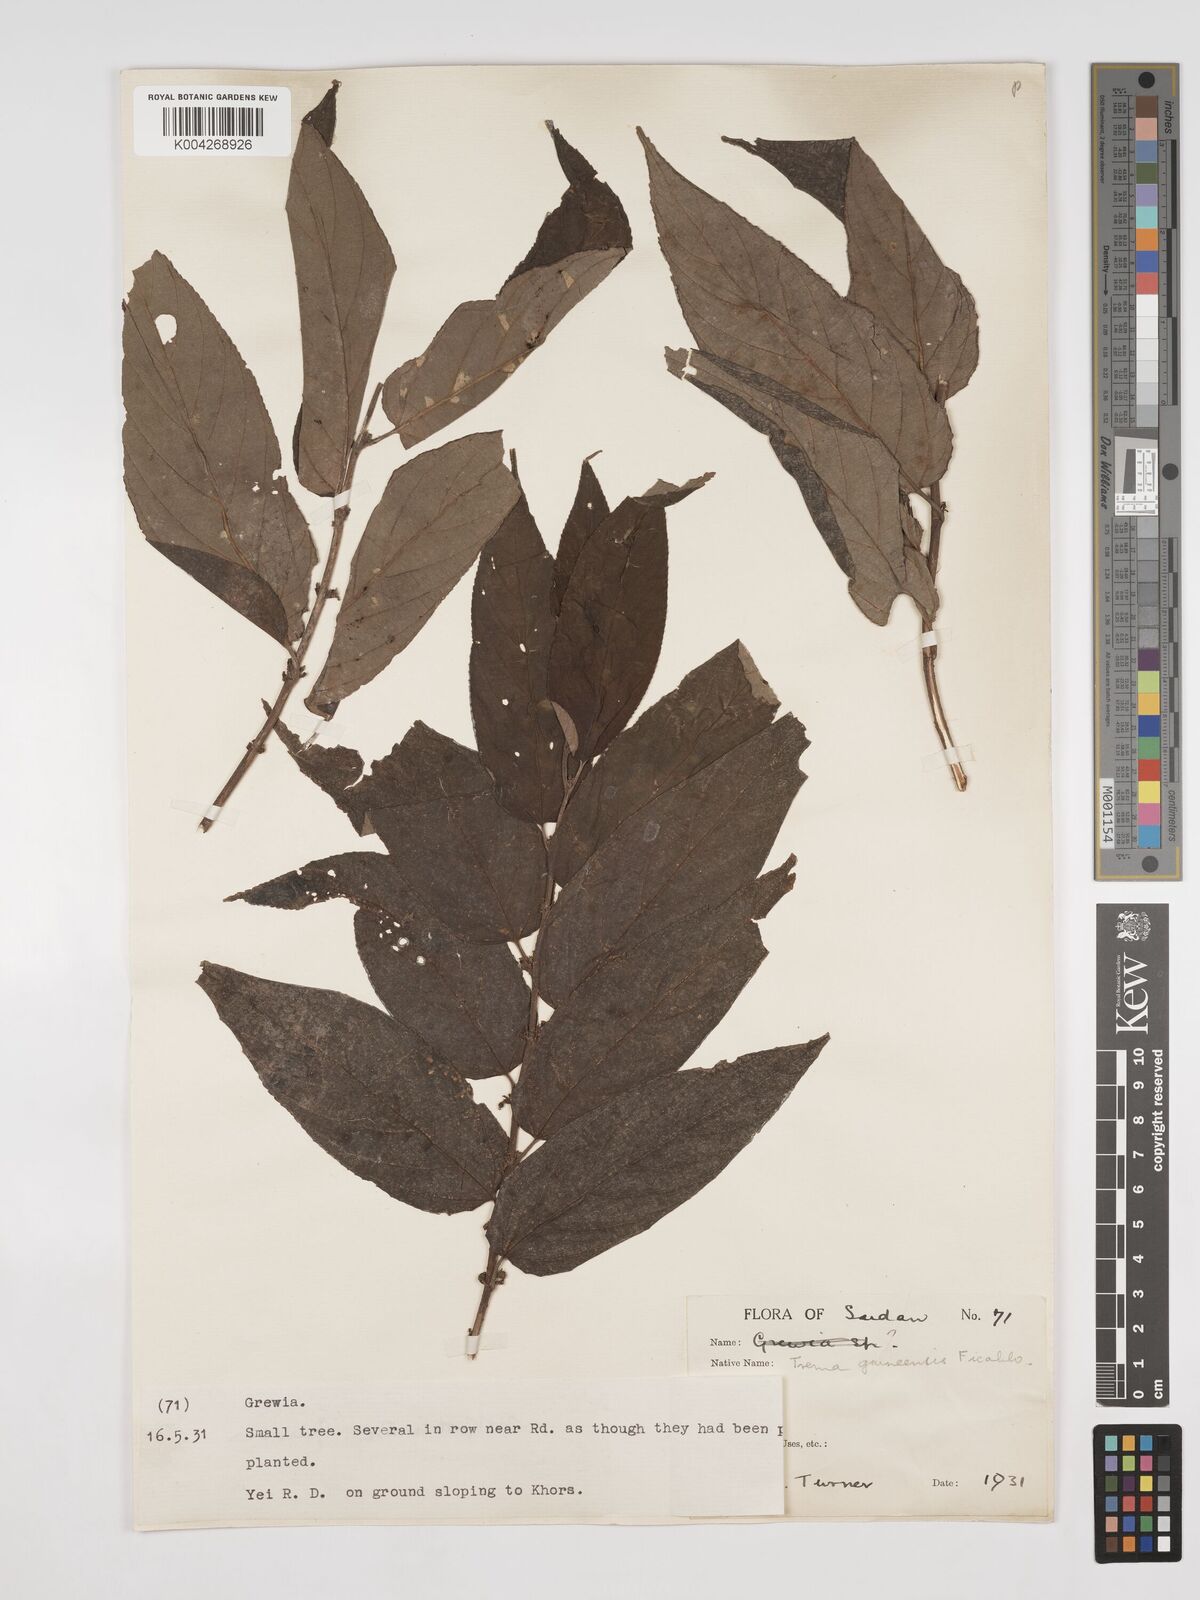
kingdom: Plantae
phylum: Tracheophyta
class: Magnoliopsida
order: Rosales
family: Cannabaceae
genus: Trema
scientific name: Trema orientale
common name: Indian charcoal tree
